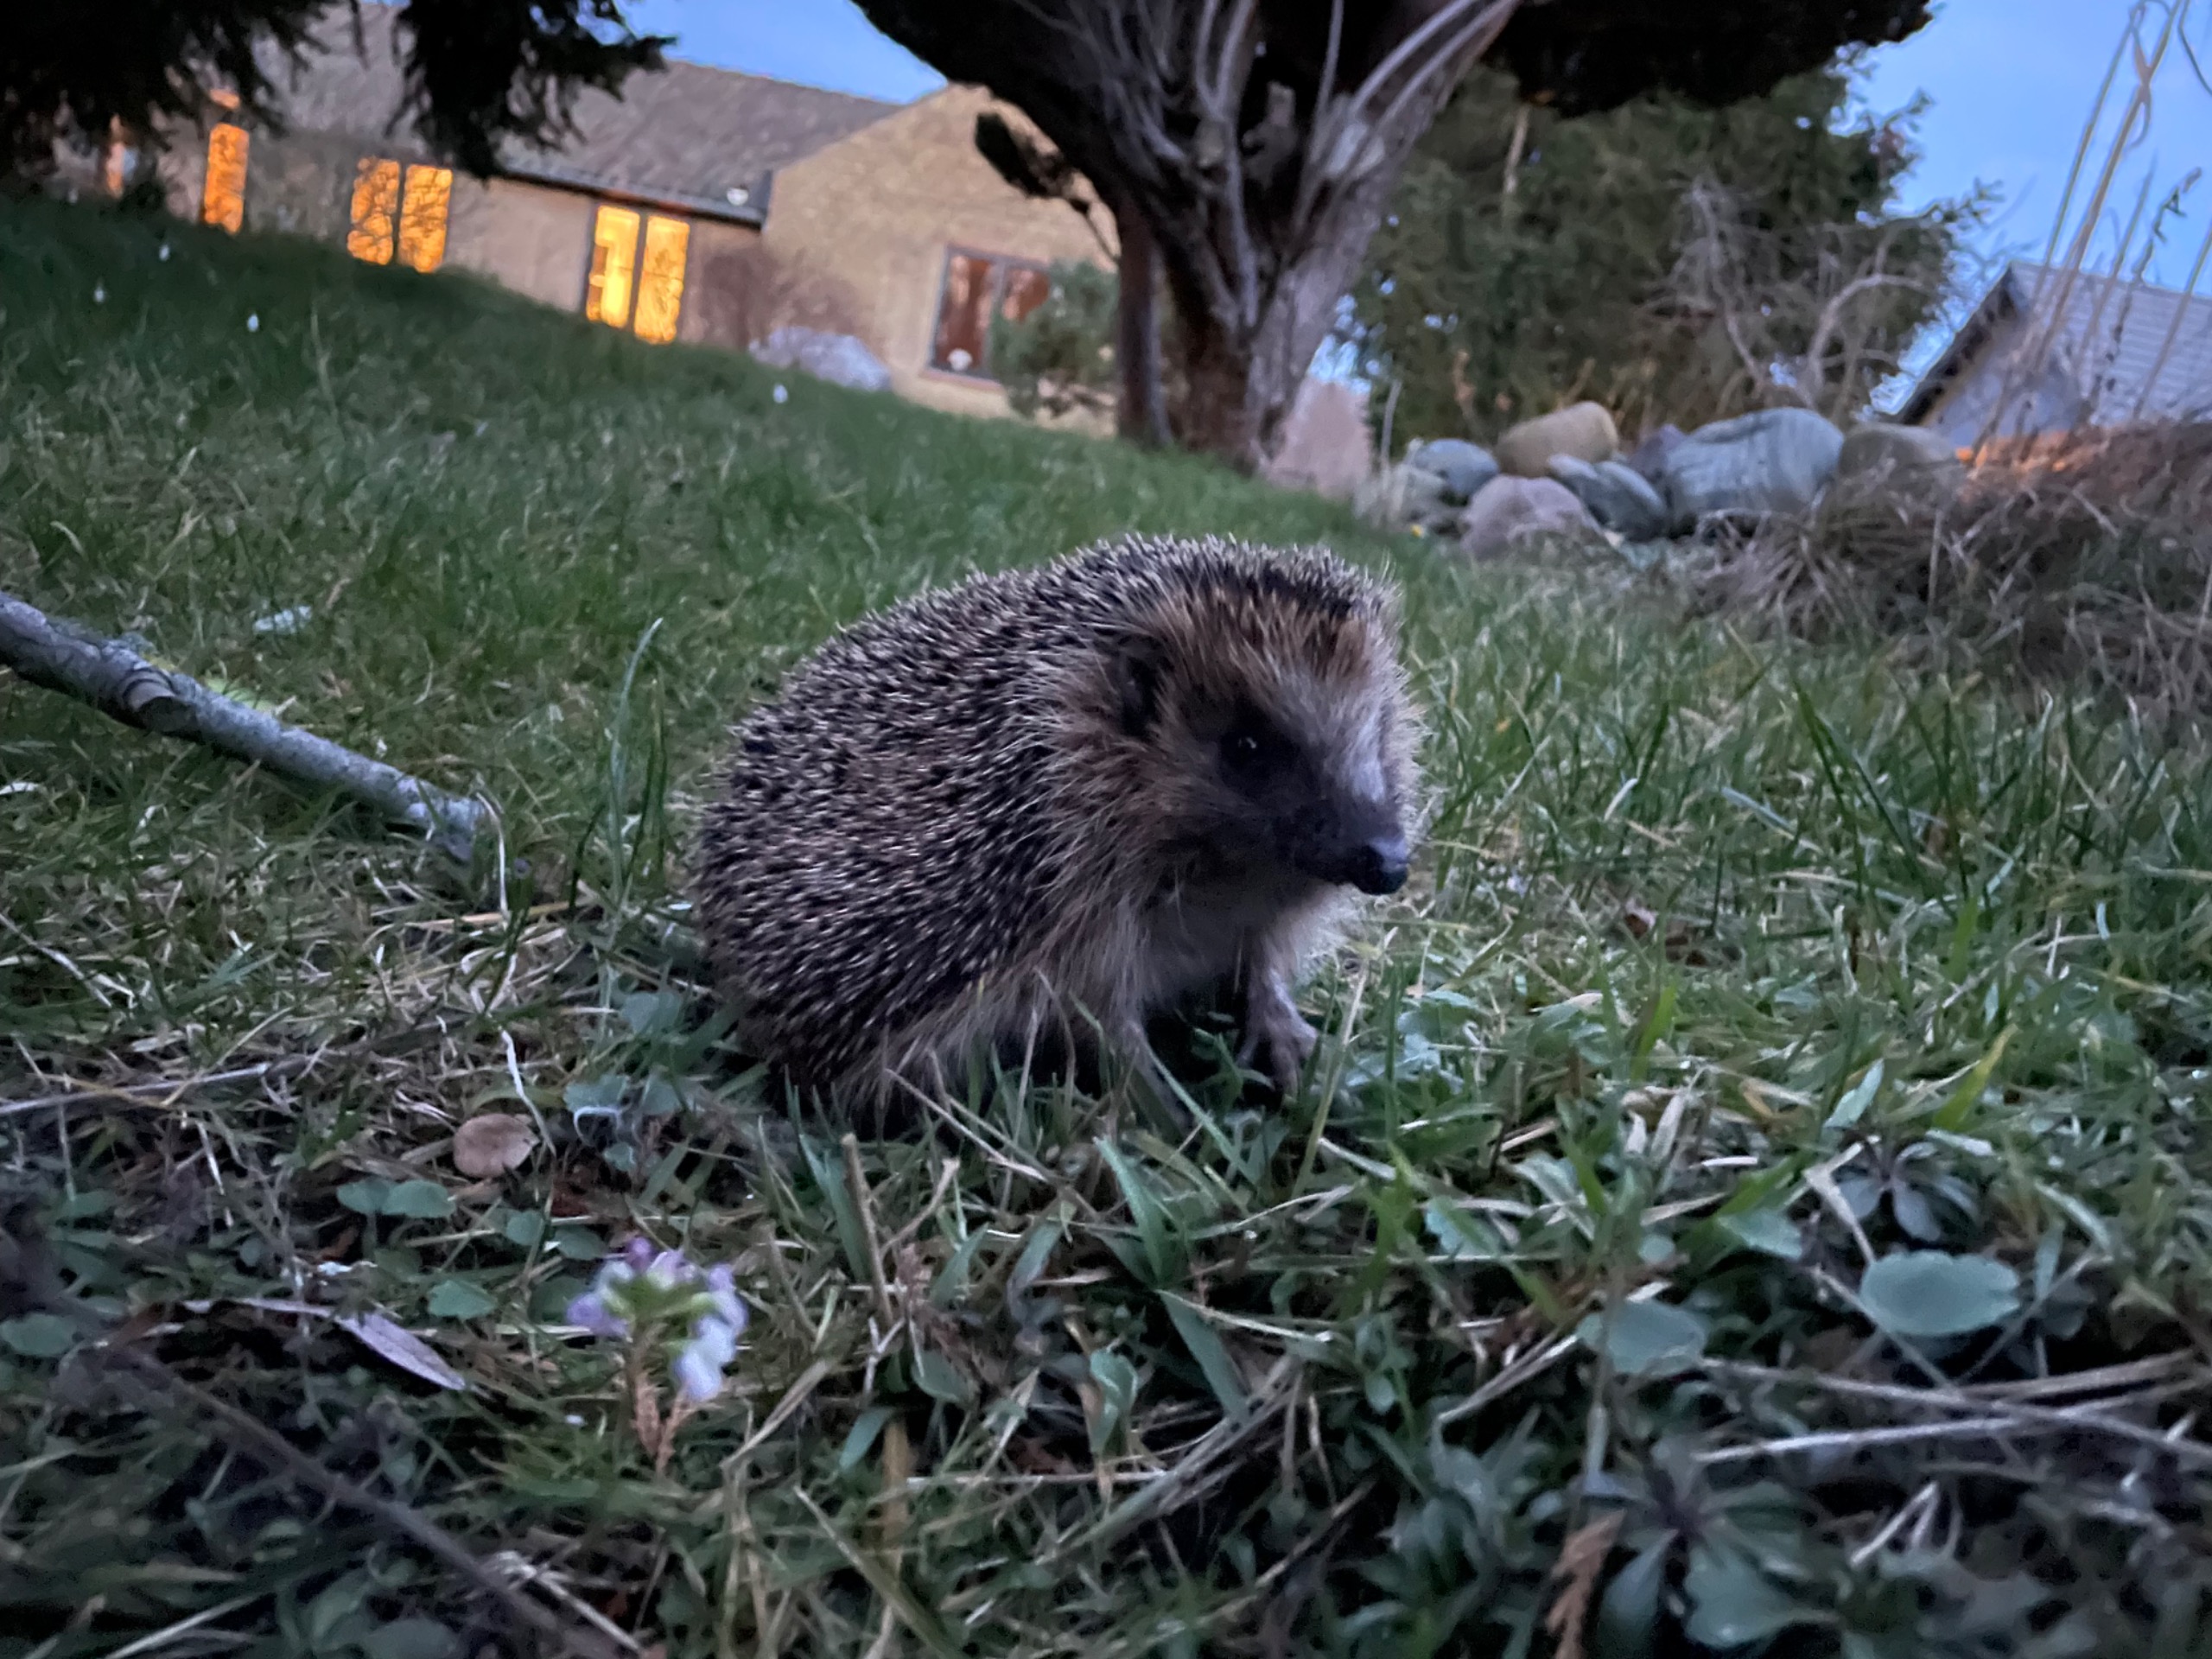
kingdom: Animalia
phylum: Chordata
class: Mammalia
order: Erinaceomorpha
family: Erinaceidae
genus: Erinaceus
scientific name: Erinaceus europaeus
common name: Pindsvin
